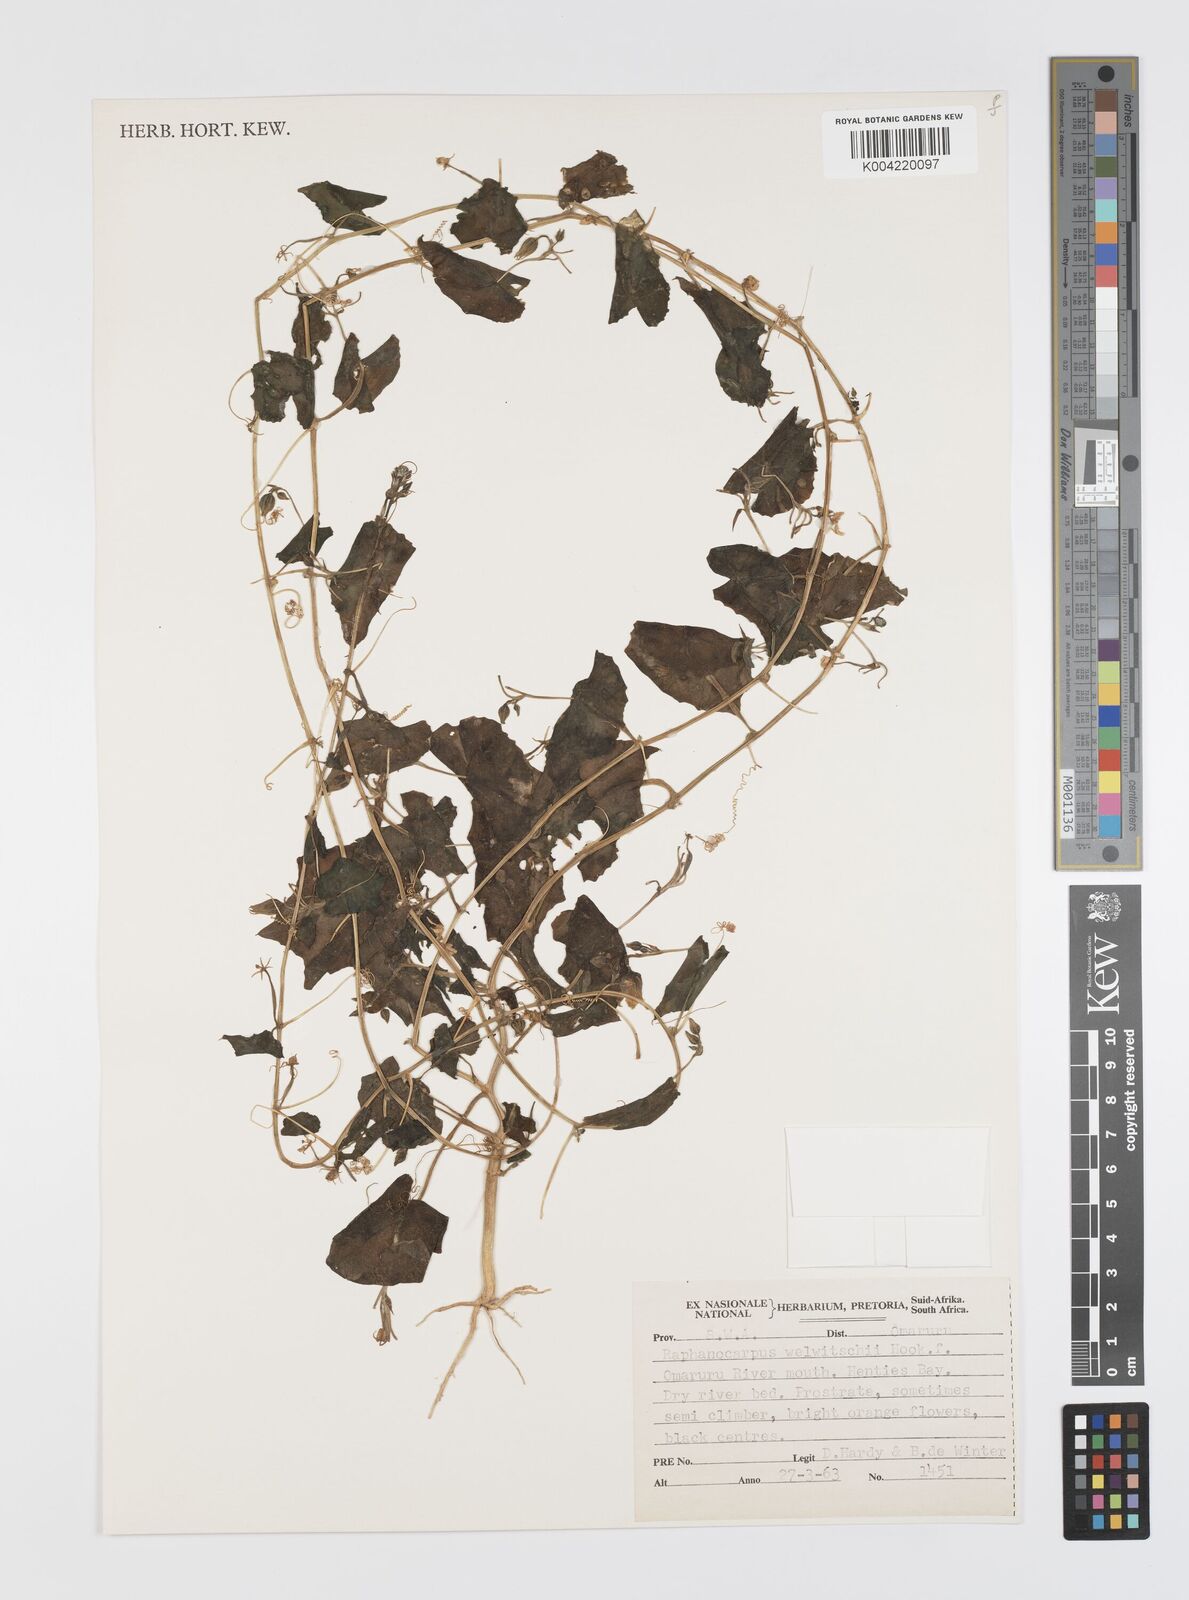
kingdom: Plantae
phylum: Tracheophyta
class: Magnoliopsida
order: Cucurbitales
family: Cucurbitaceae
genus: Momordica
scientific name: Momordica
